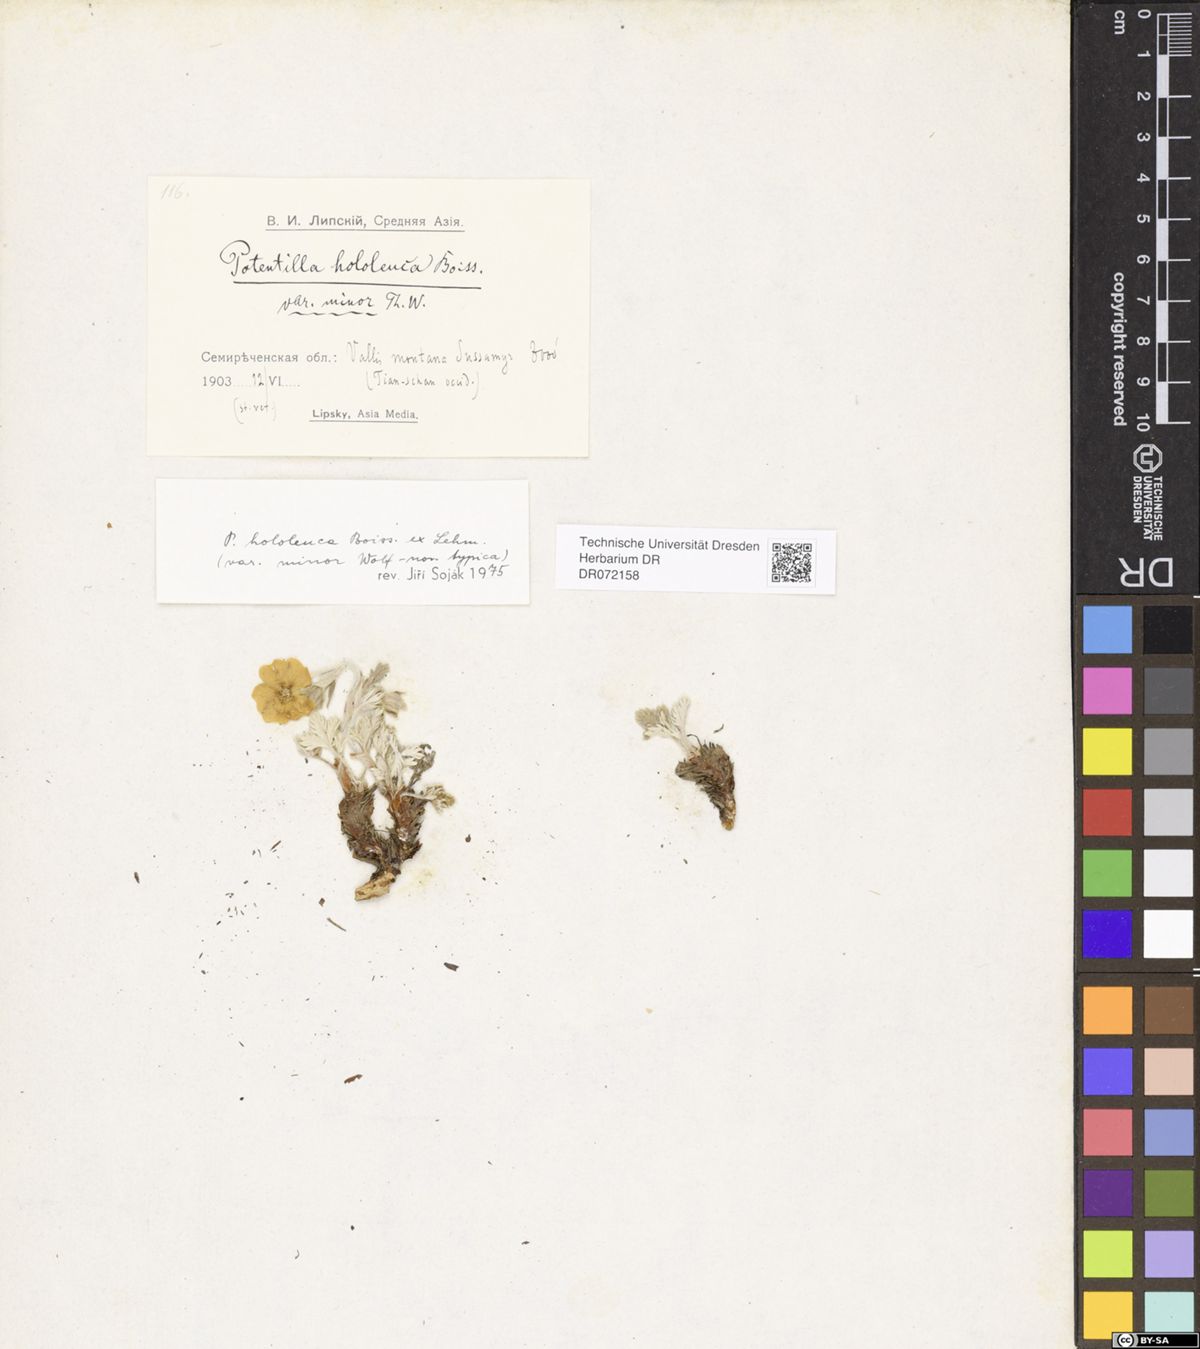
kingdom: Plantae
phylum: Tracheophyta
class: Magnoliopsida
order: Rosales
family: Rosaceae
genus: Potentilla
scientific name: Potentilla hololeuca
